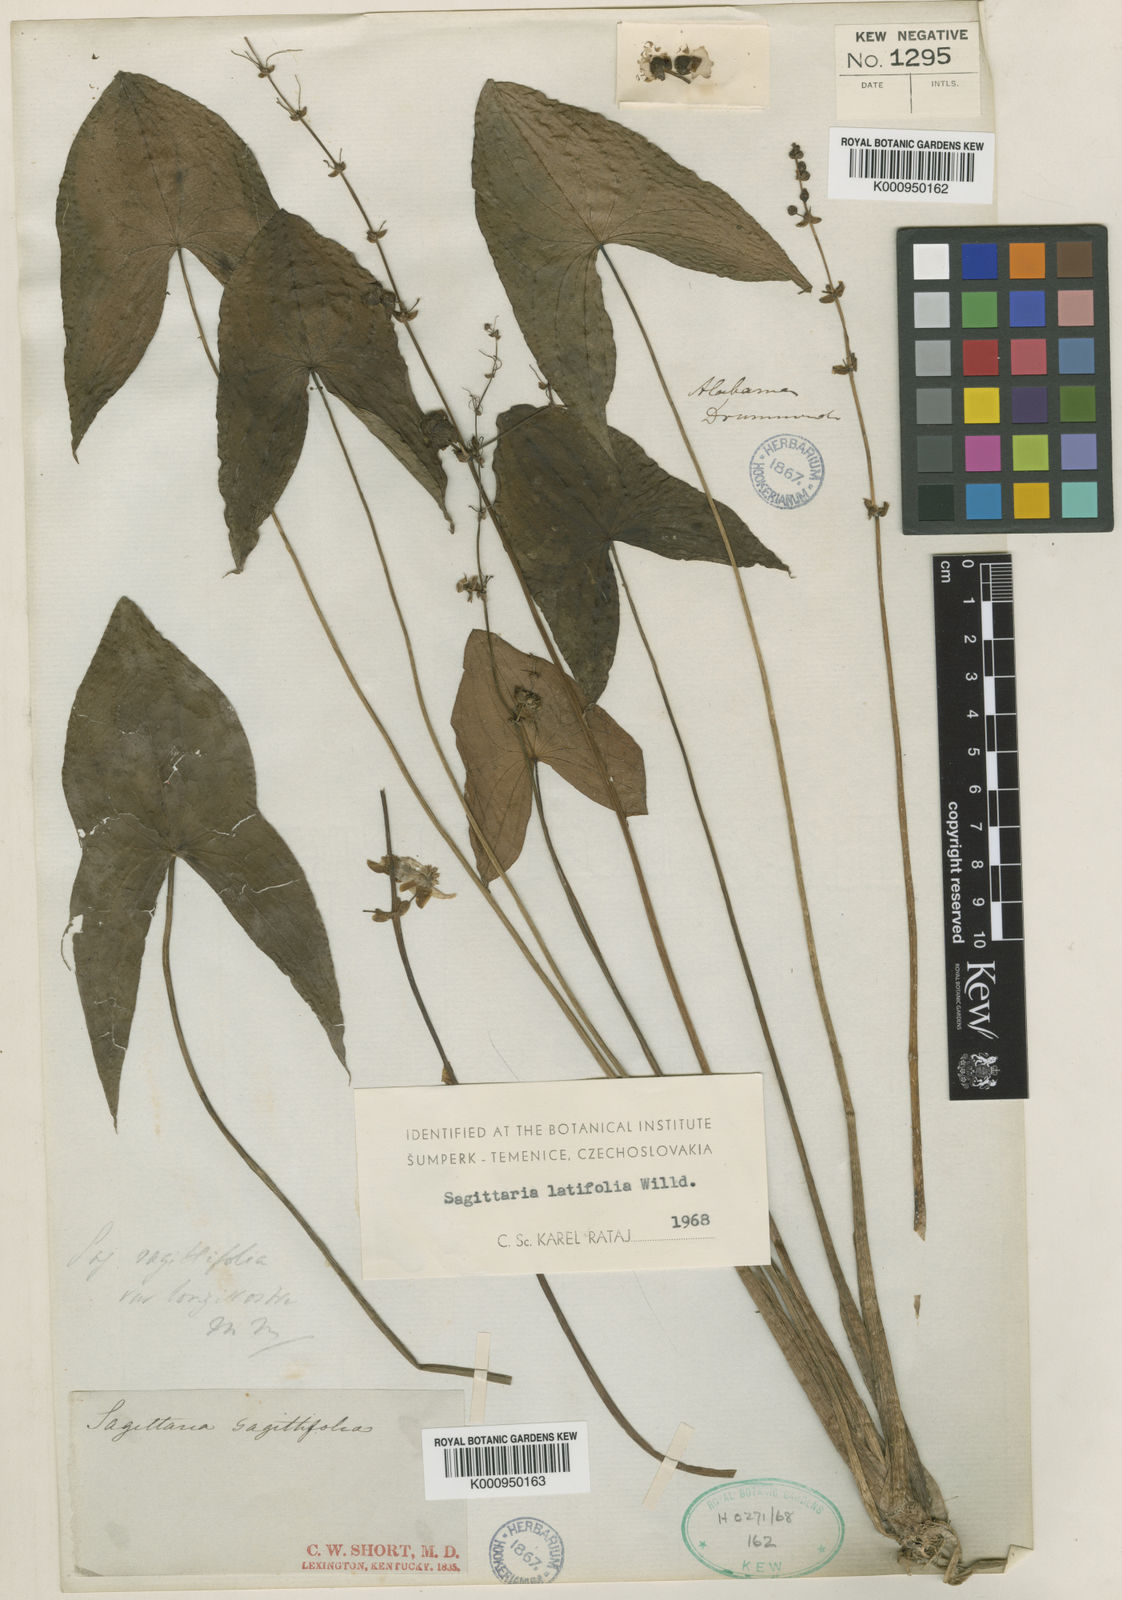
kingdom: Plantae
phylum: Tracheophyta
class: Liliopsida
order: Alismatales
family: Alismataceae
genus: Sagittaria
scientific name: Sagittaria latifolia
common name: Duck-potato
